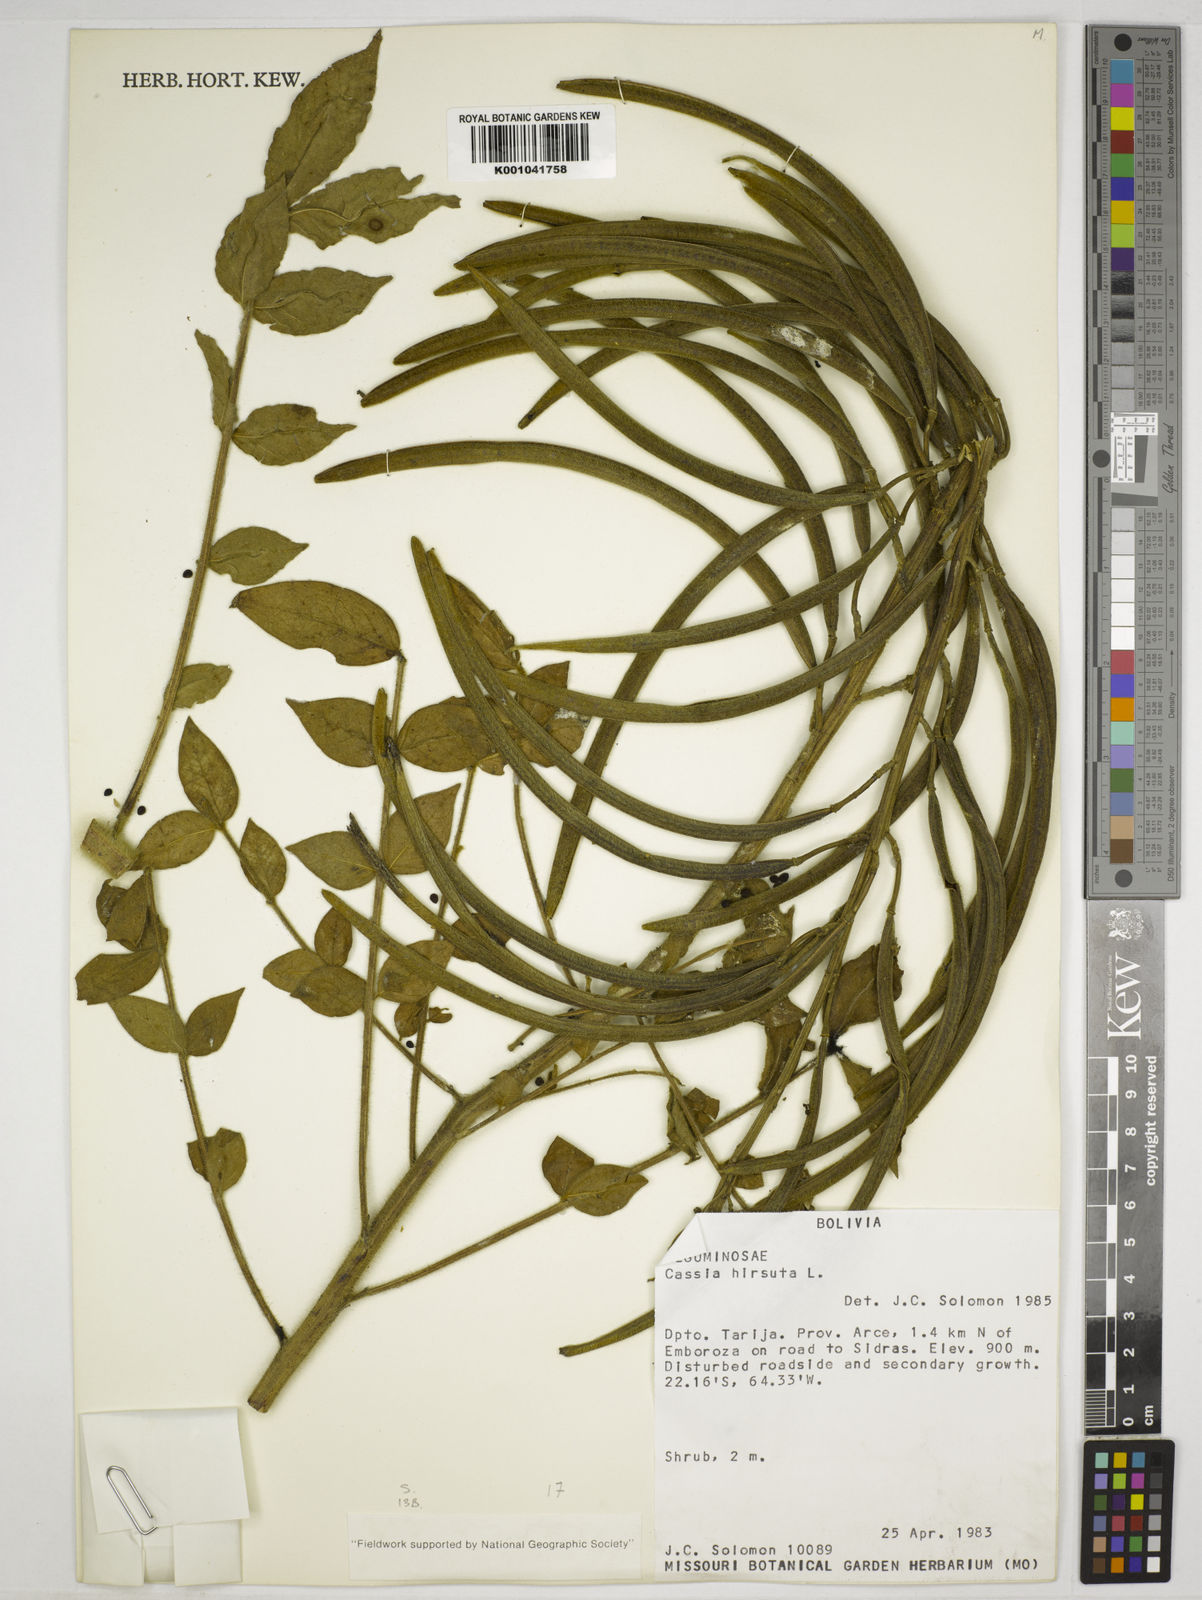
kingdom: Plantae
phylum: Tracheophyta
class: Magnoliopsida
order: Fabales
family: Fabaceae
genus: Senna
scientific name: Senna hirsuta
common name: Woolly senna
